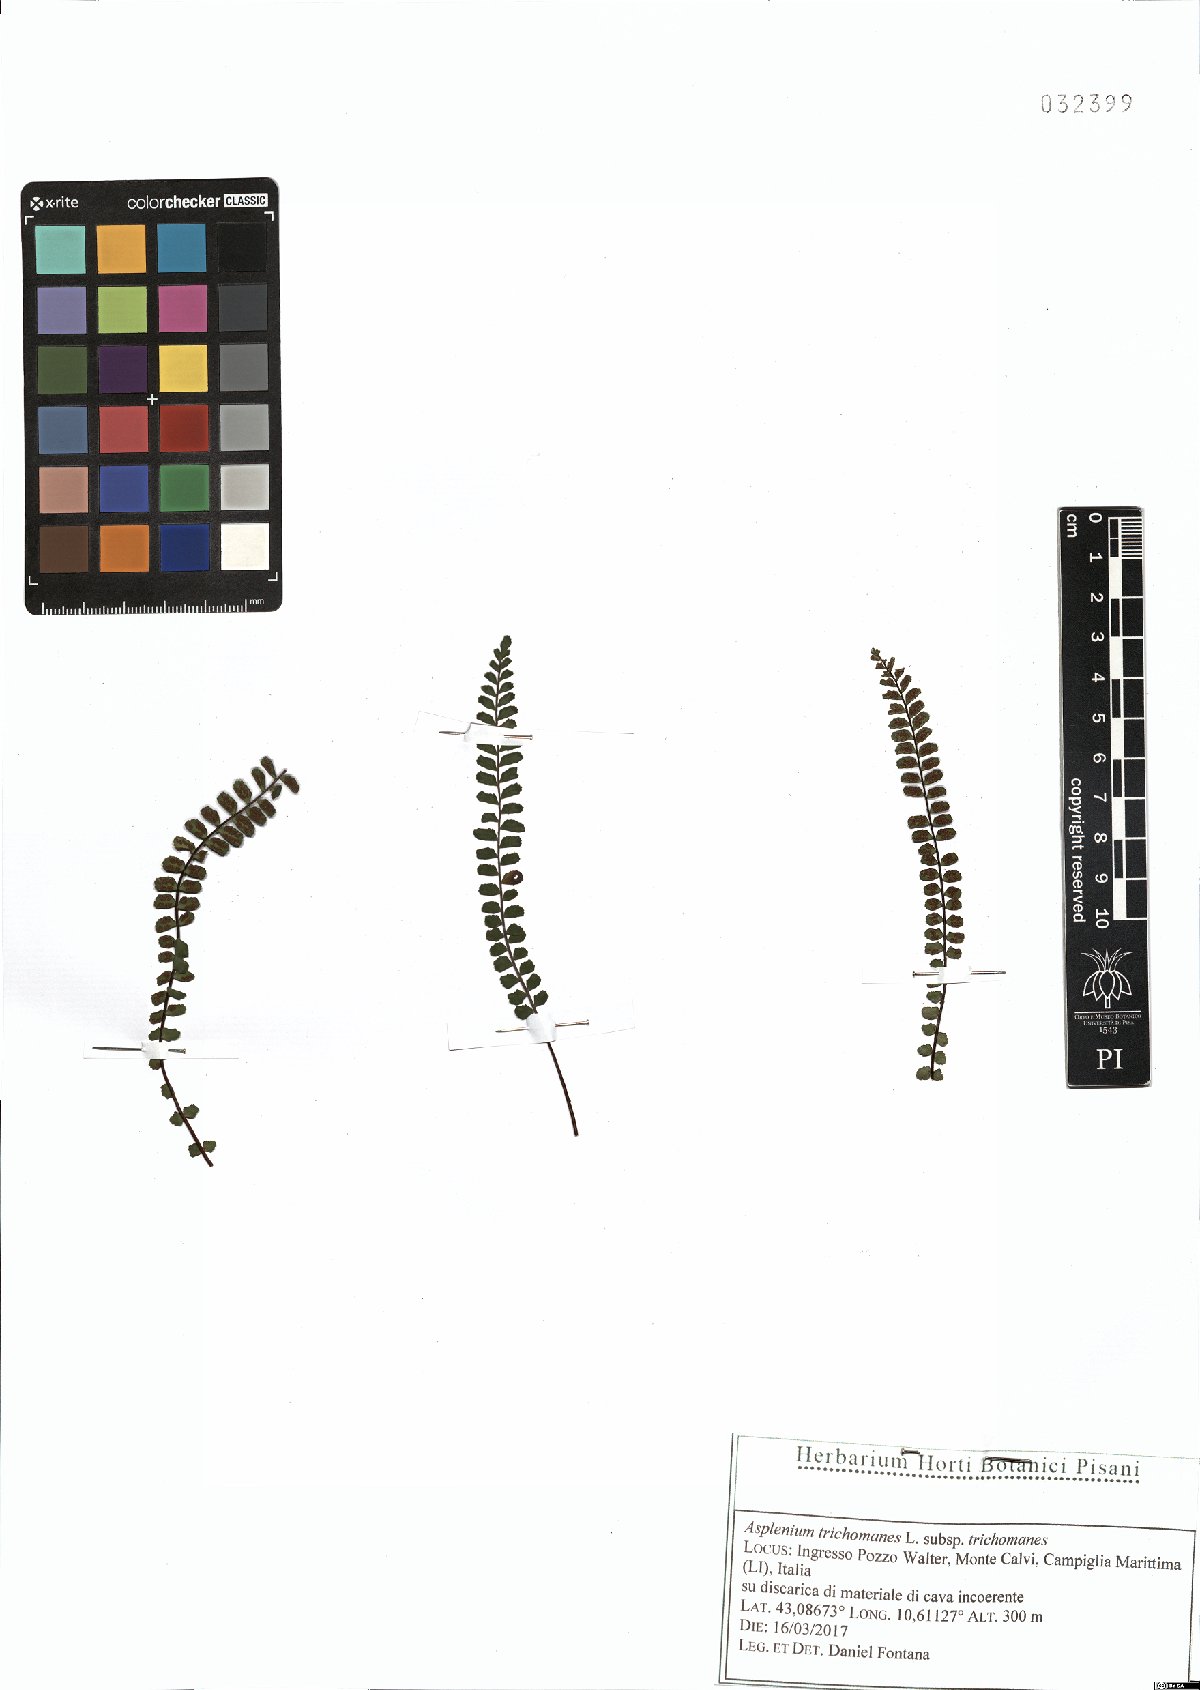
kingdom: Plantae
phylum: Tracheophyta
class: Polypodiopsida
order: Polypodiales
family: Aspleniaceae
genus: Asplenium
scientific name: Asplenium trichomanes
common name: Maidenhair spleenwort
